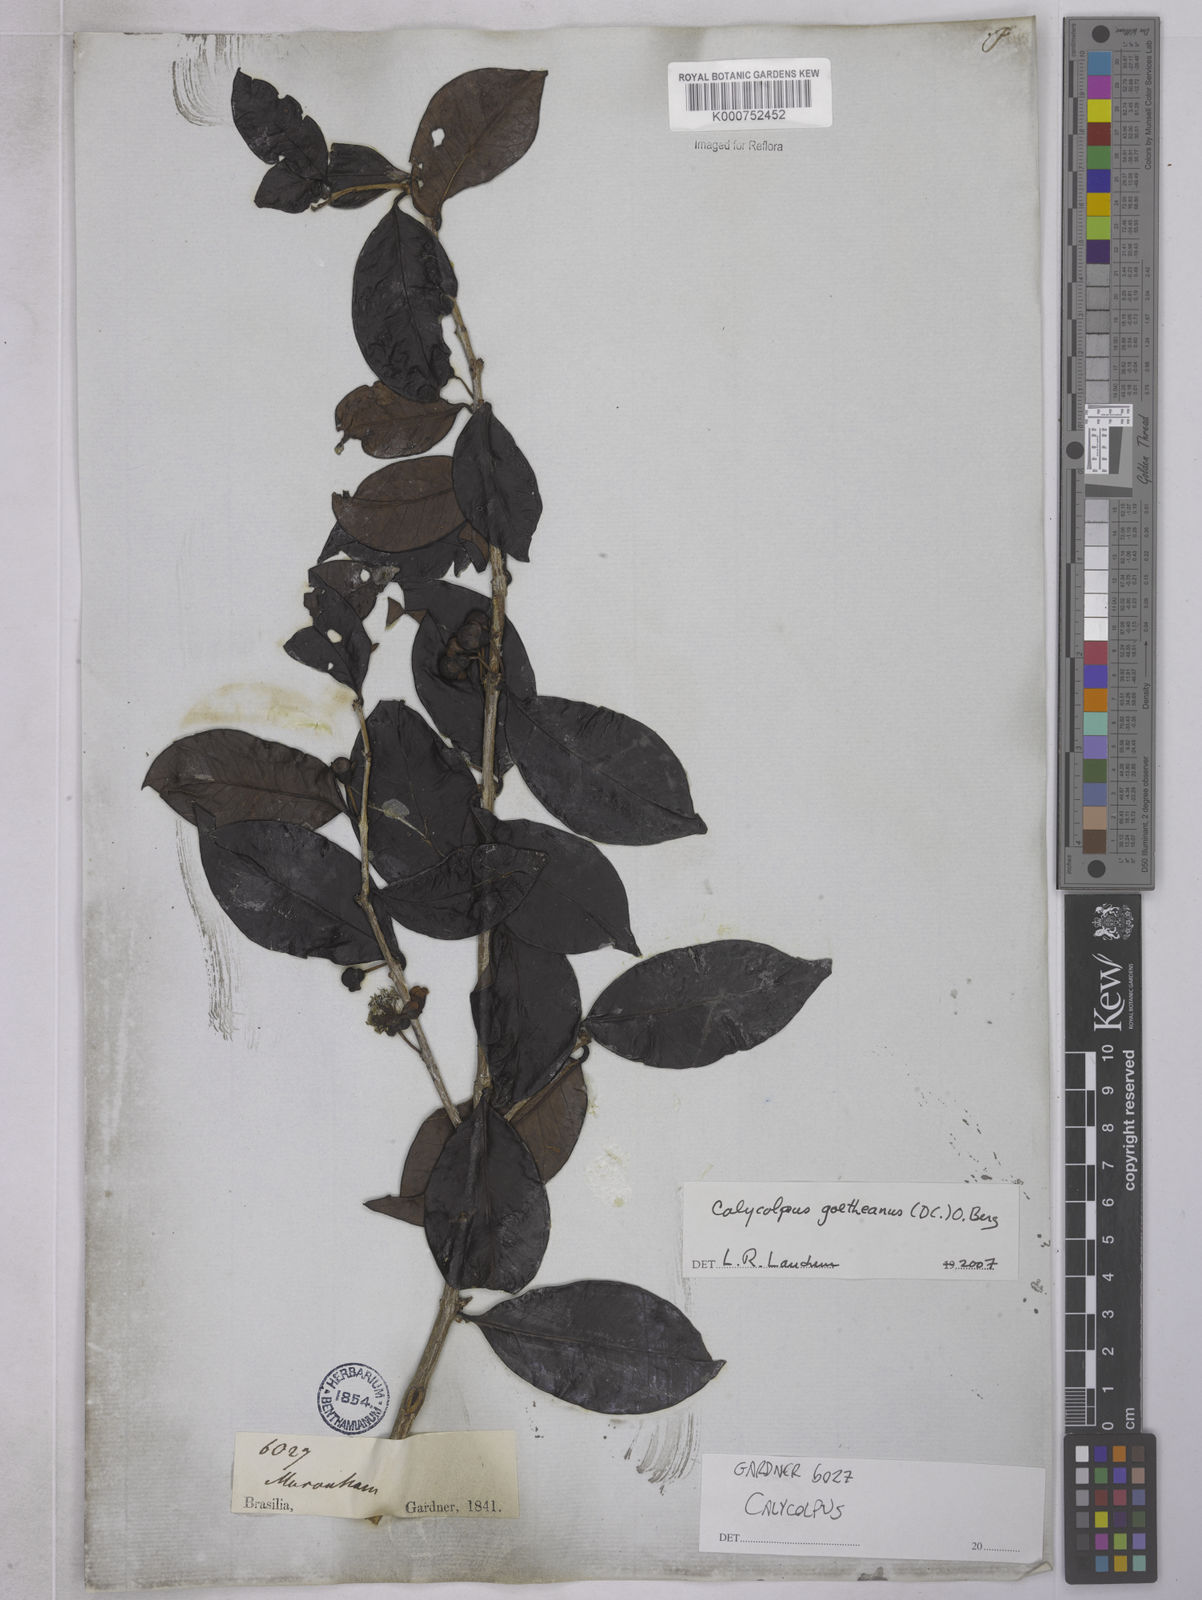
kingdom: Plantae
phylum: Tracheophyta
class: Magnoliopsida
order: Myrtales
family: Myrtaceae
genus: Calycolpus
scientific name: Calycolpus
